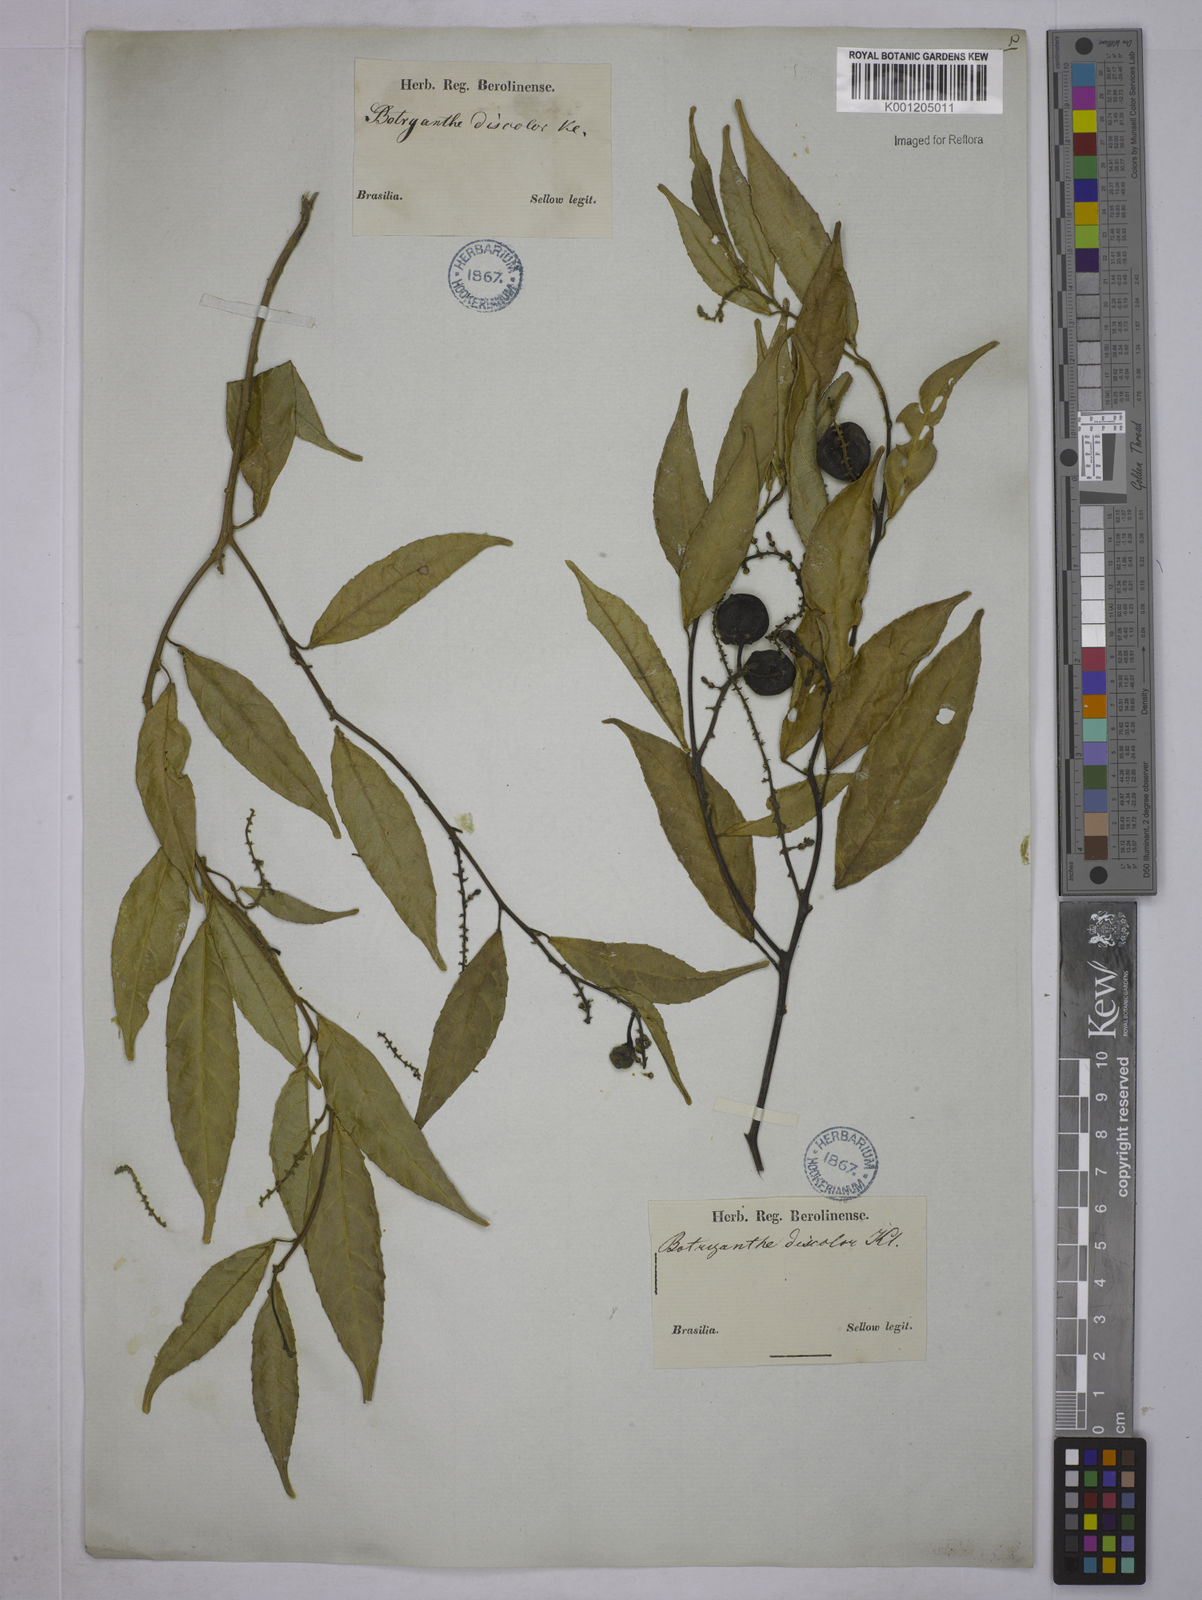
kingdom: Plantae
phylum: Tracheophyta
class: Magnoliopsida
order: Malpighiales
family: Euphorbiaceae
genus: Plukenetia
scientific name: Plukenetia serrata
